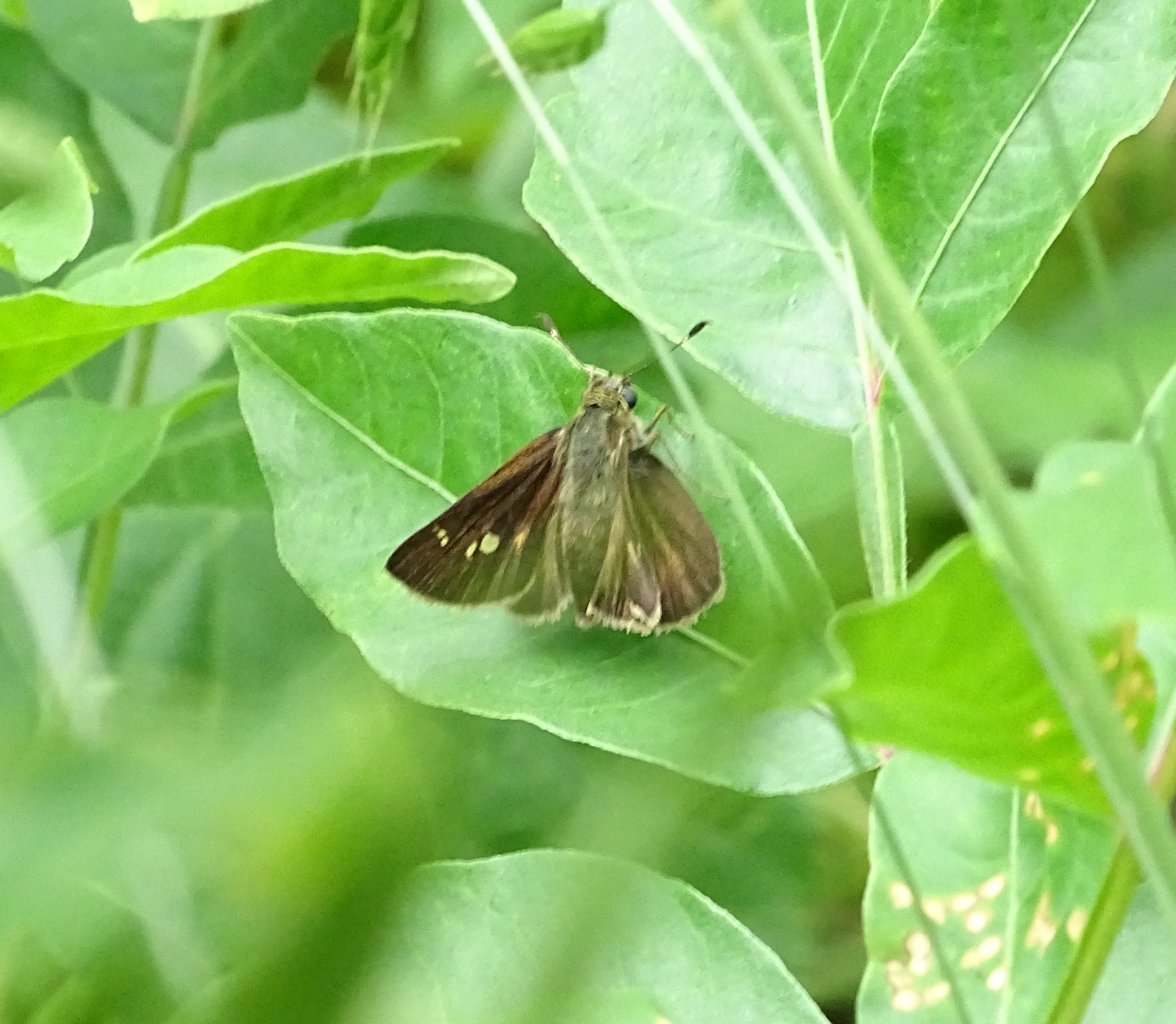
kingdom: Animalia
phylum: Arthropoda
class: Insecta
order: Lepidoptera
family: Hesperiidae
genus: Vernia
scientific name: Vernia verna
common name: Little Glassywing
